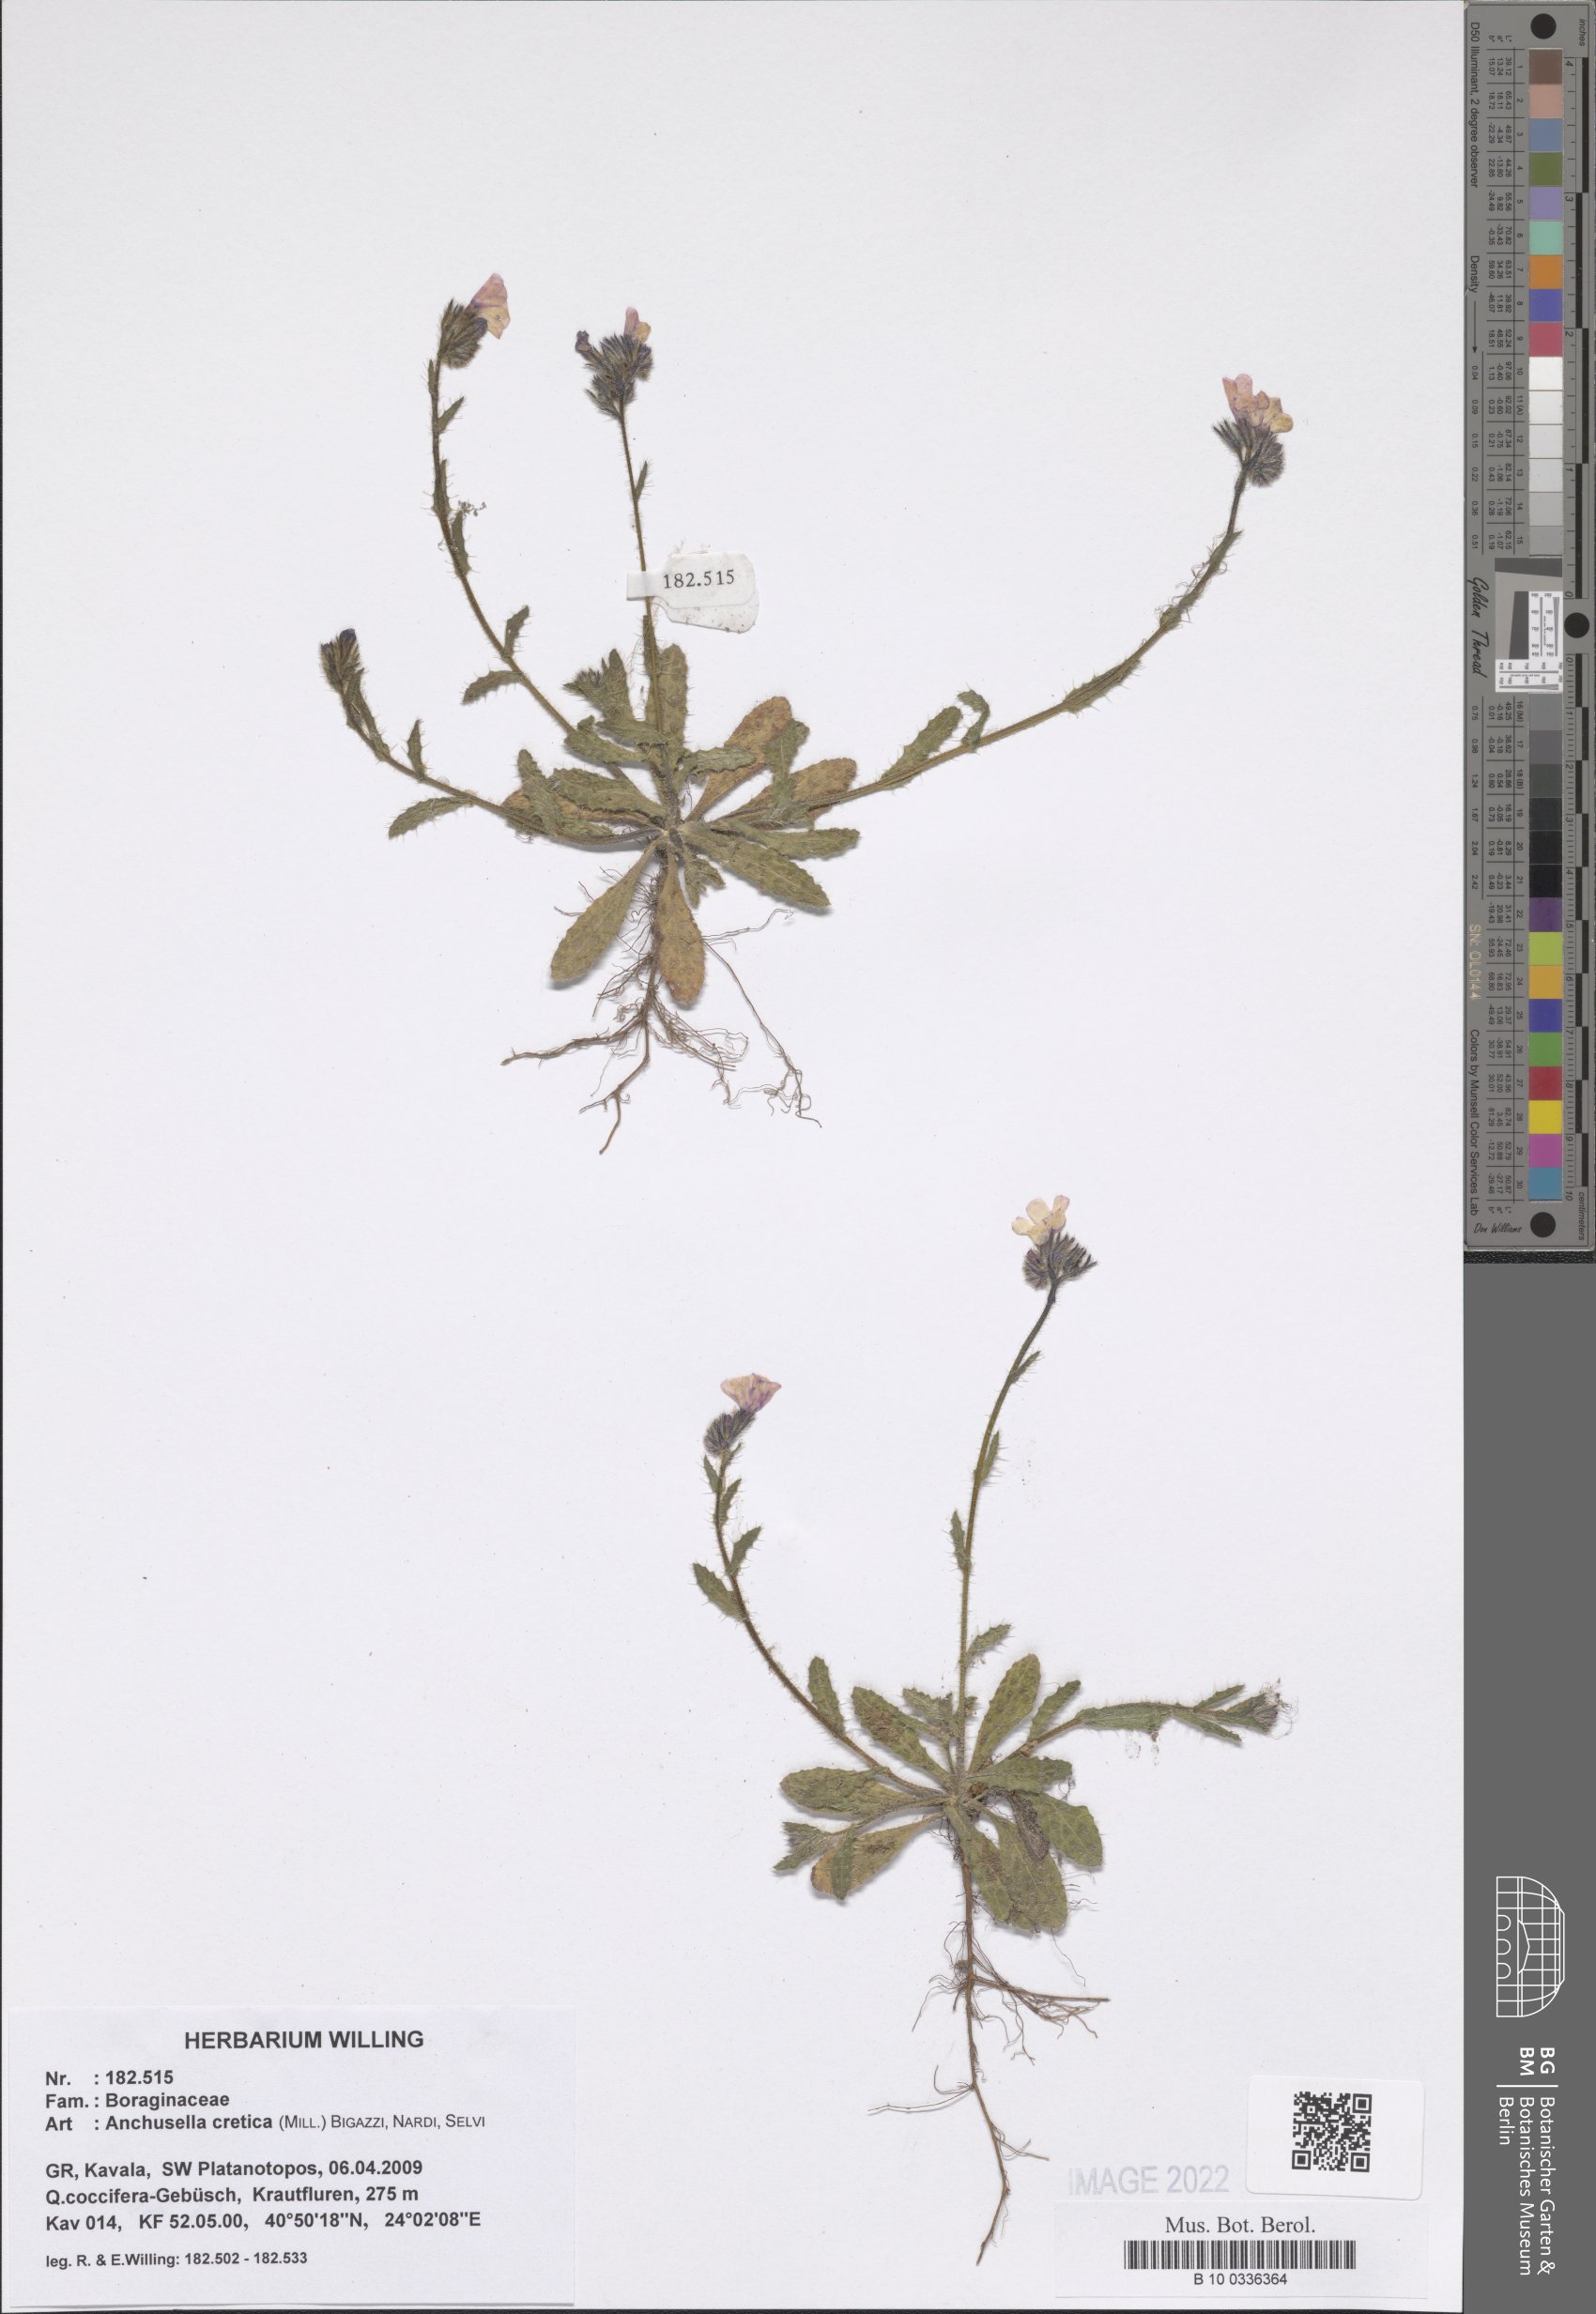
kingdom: Plantae
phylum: Tracheophyta
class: Magnoliopsida
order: Boraginales
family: Boraginaceae
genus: Anchusella
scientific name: Anchusella cretica
